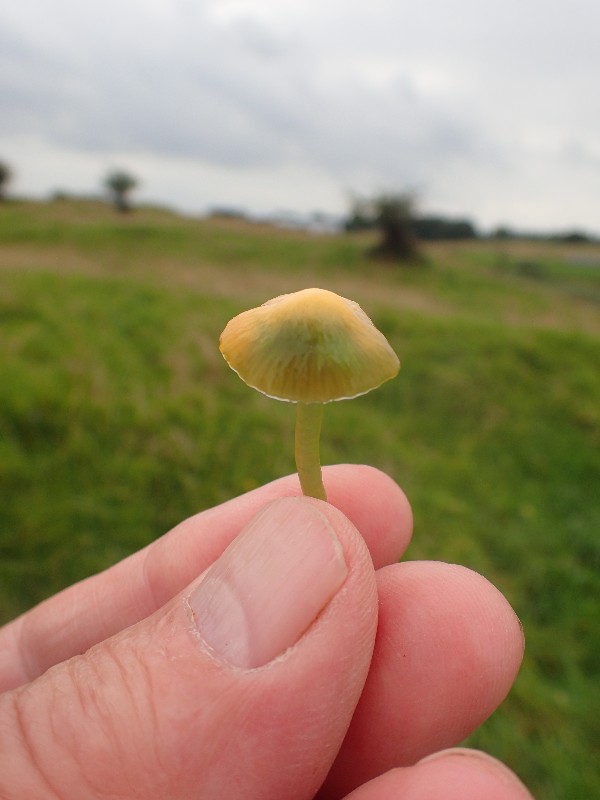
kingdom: Fungi
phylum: Basidiomycota
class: Agaricomycetes
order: Agaricales
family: Hygrophoraceae
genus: Gliophorus
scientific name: Gliophorus psittacinus
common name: papegøje-vokshat
